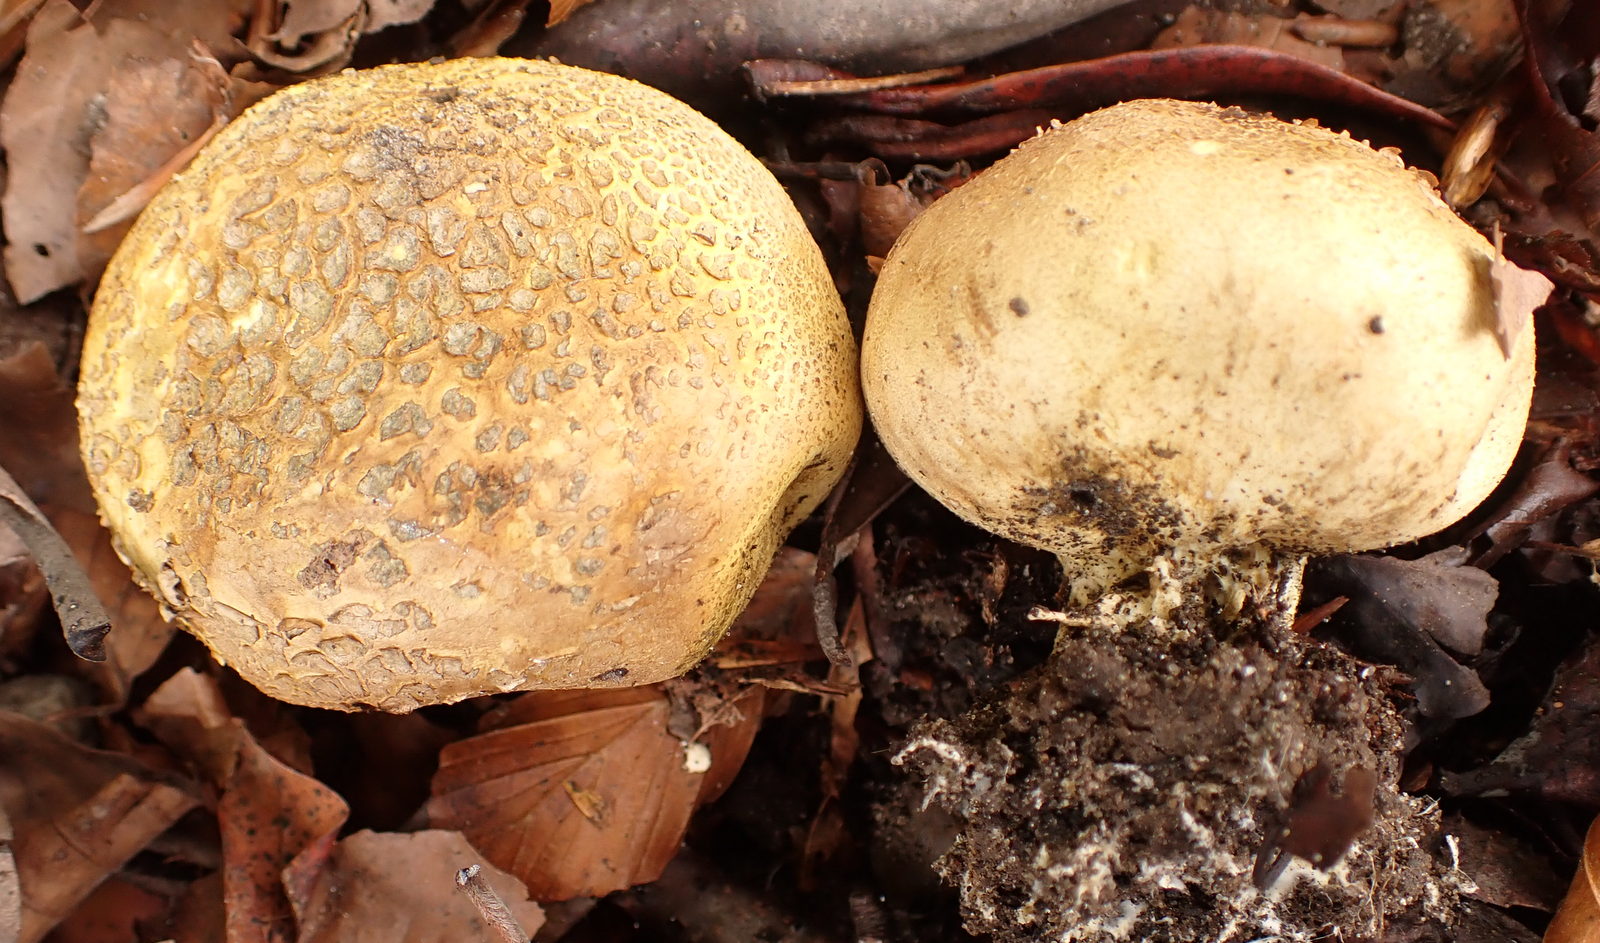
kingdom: Fungi
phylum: Basidiomycota
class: Agaricomycetes
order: Boletales
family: Sclerodermataceae
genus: Scleroderma
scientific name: Scleroderma citrinum
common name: almindelig bruskbold
